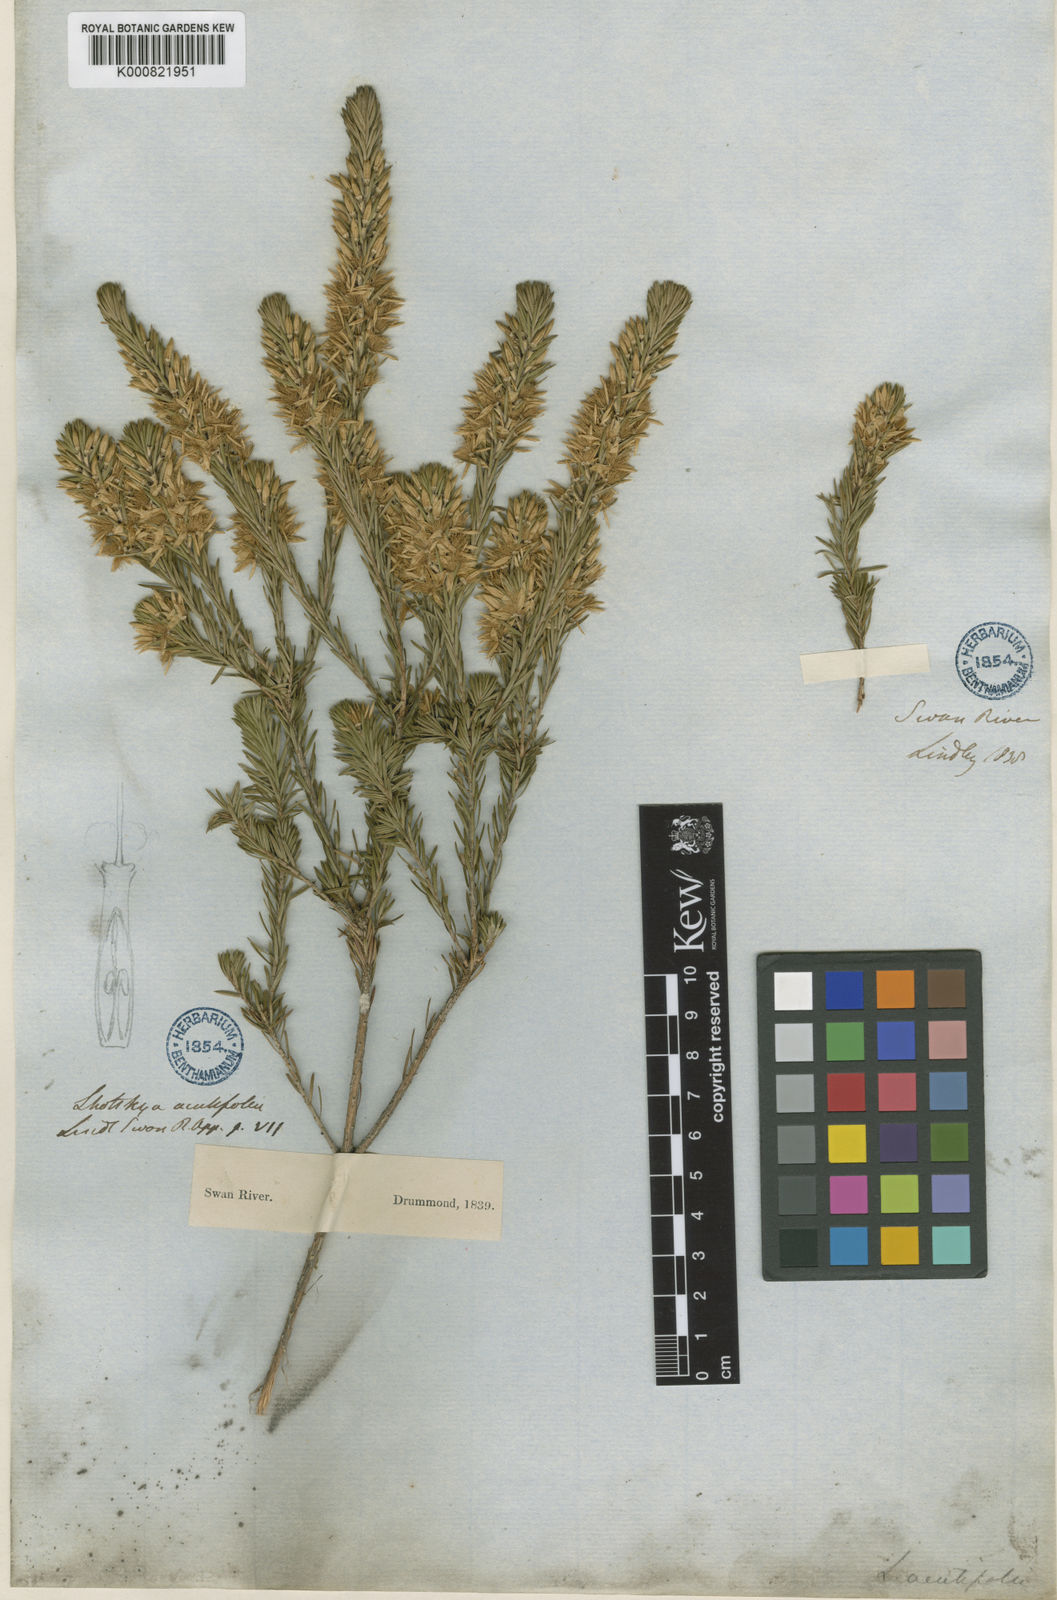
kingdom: Plantae
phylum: Tracheophyta
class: Magnoliopsida
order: Myrtales
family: Myrtaceae
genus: Calytrix
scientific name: Calytrix acutifolia
